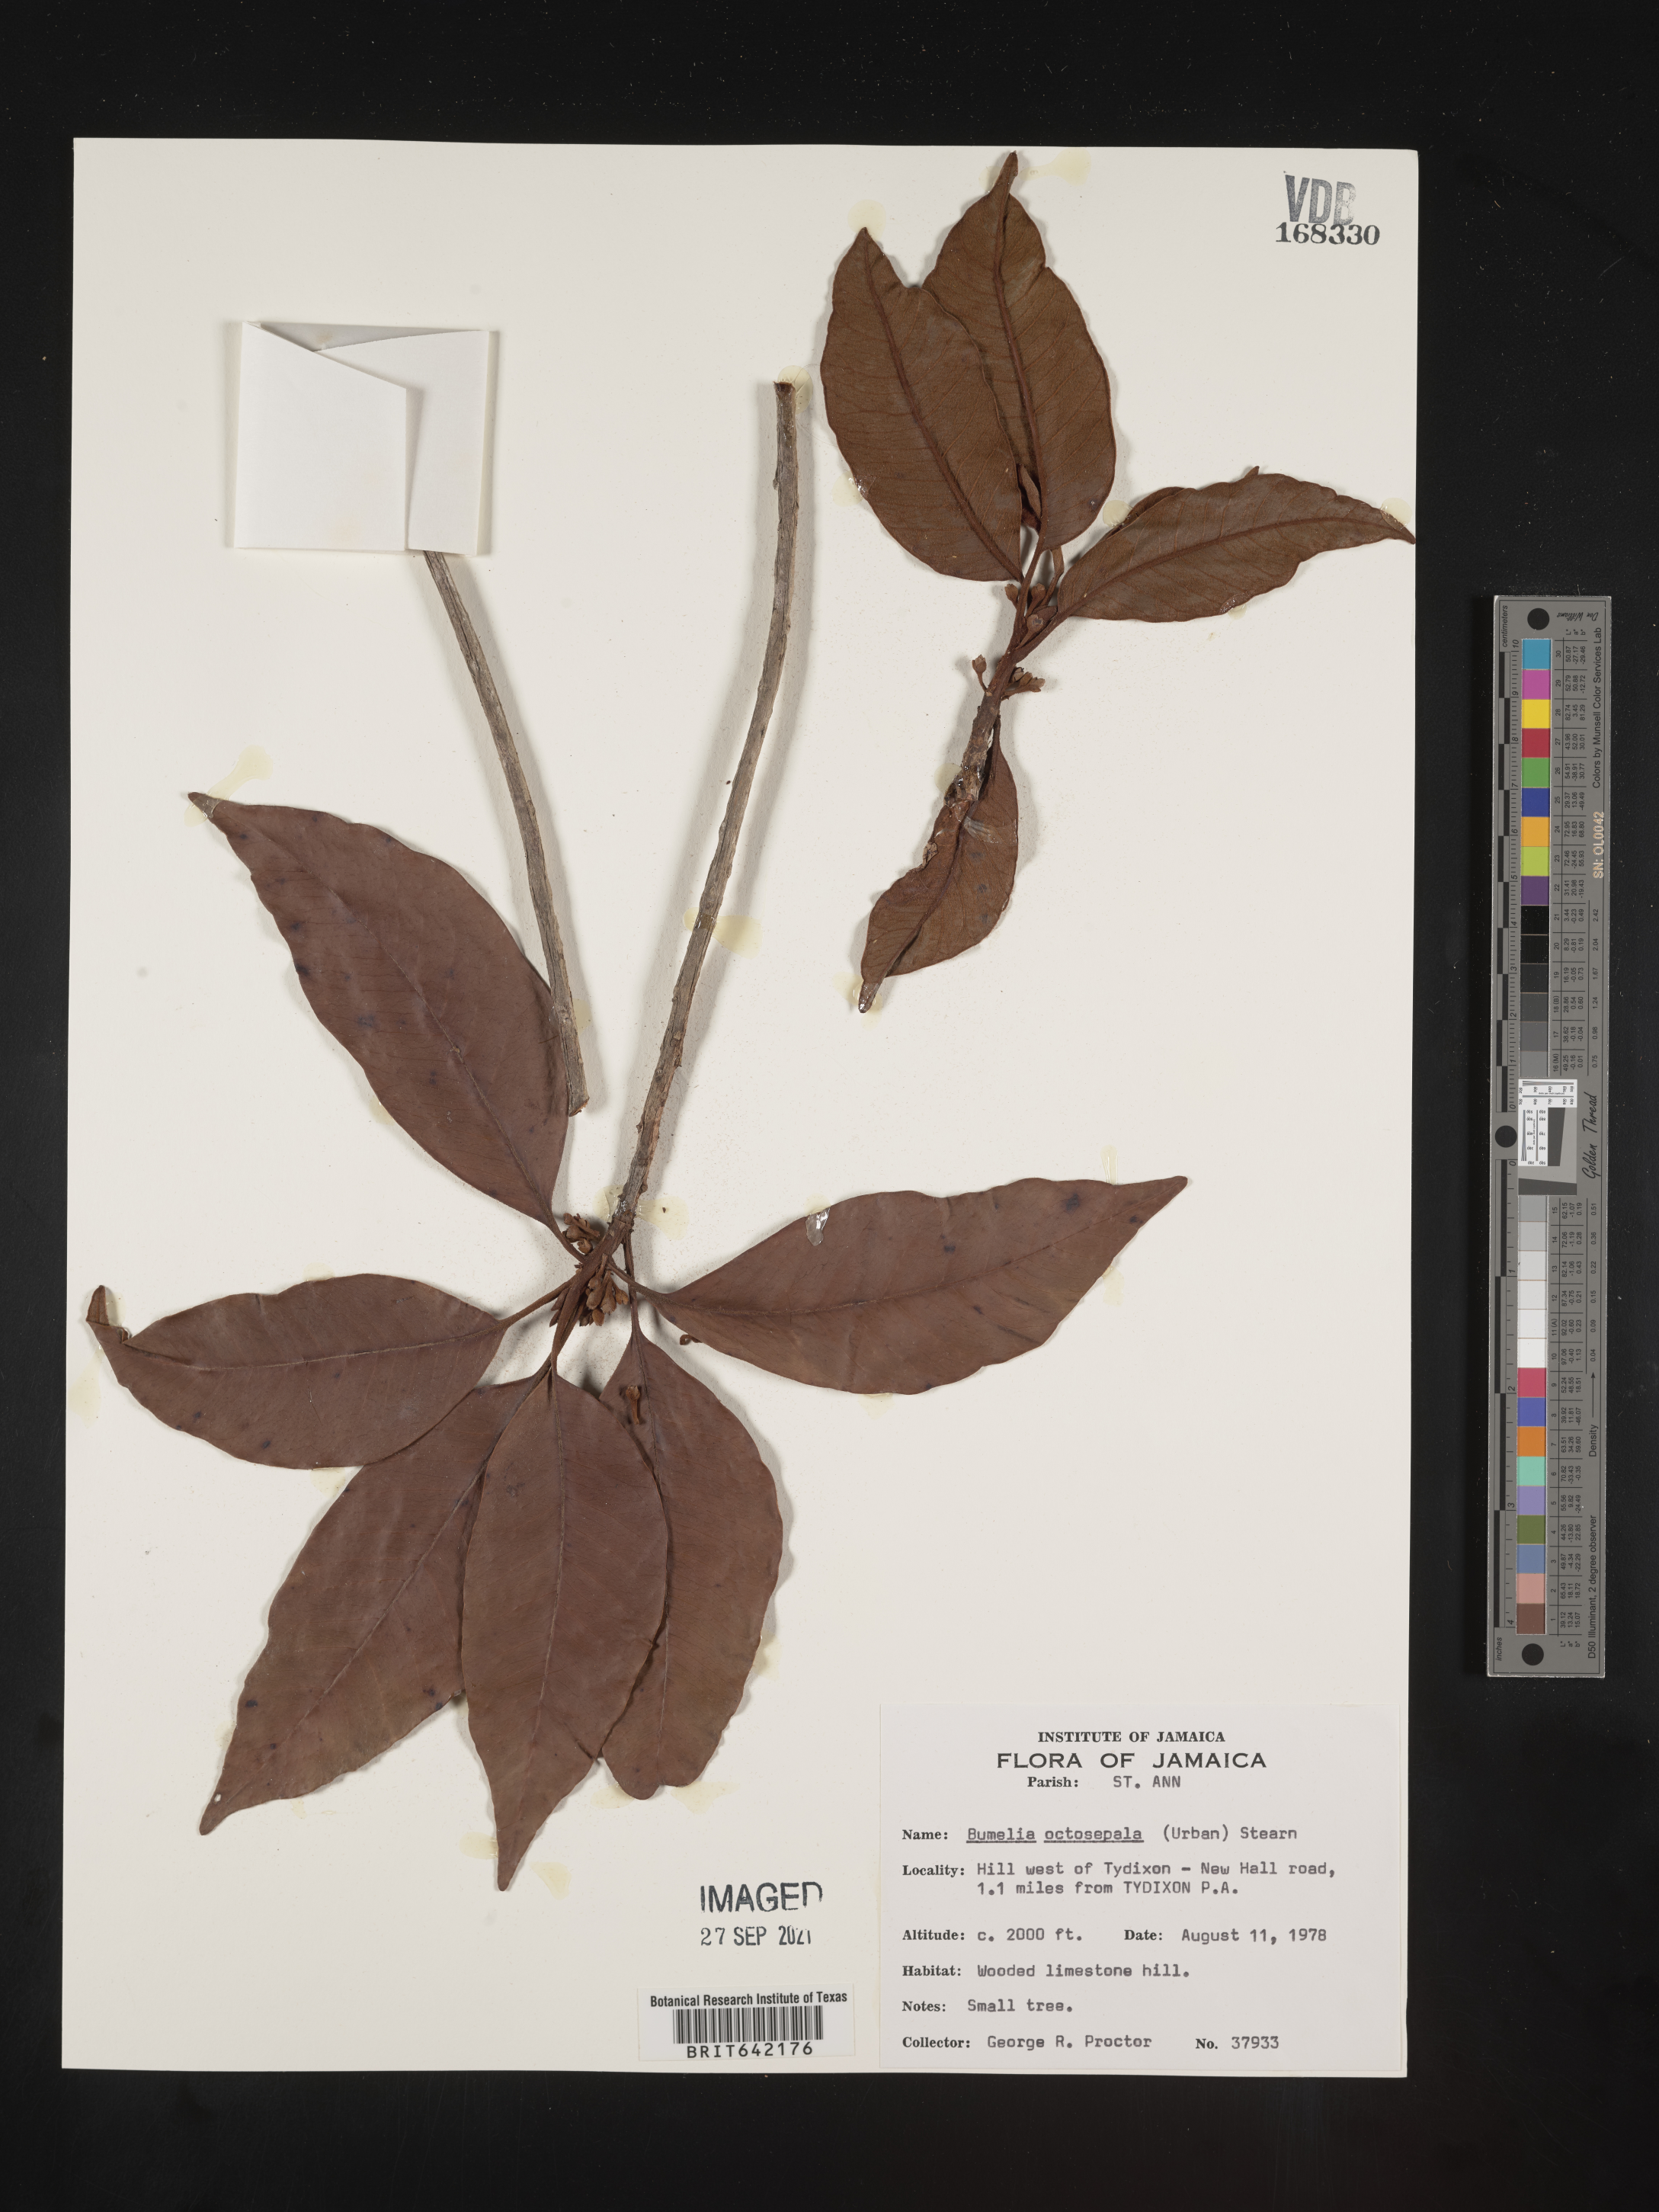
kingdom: Plantae
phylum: Tracheophyta
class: Magnoliopsida
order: Ericales
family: Sapotaceae
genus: Sideroxylon
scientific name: Sideroxylon
